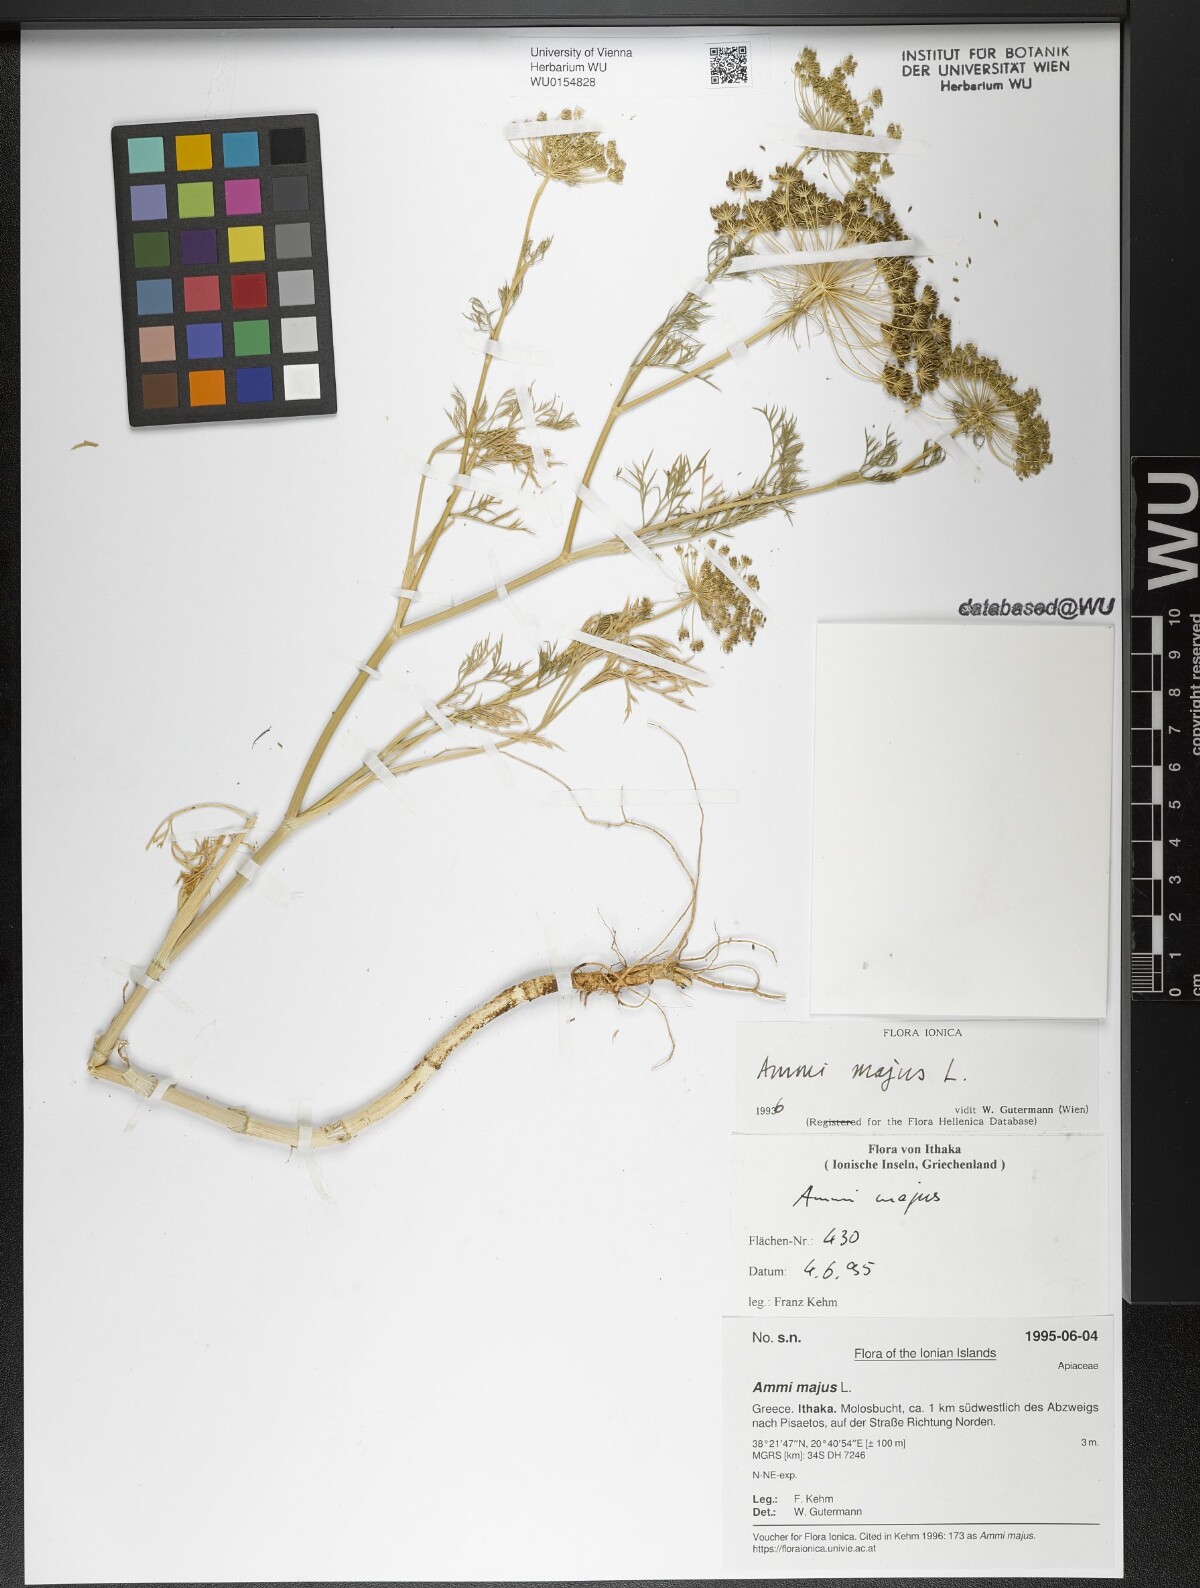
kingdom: Plantae
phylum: Tracheophyta
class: Magnoliopsida
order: Apiales
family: Apiaceae
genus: Ammi
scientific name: Ammi majus
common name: Bullwort
